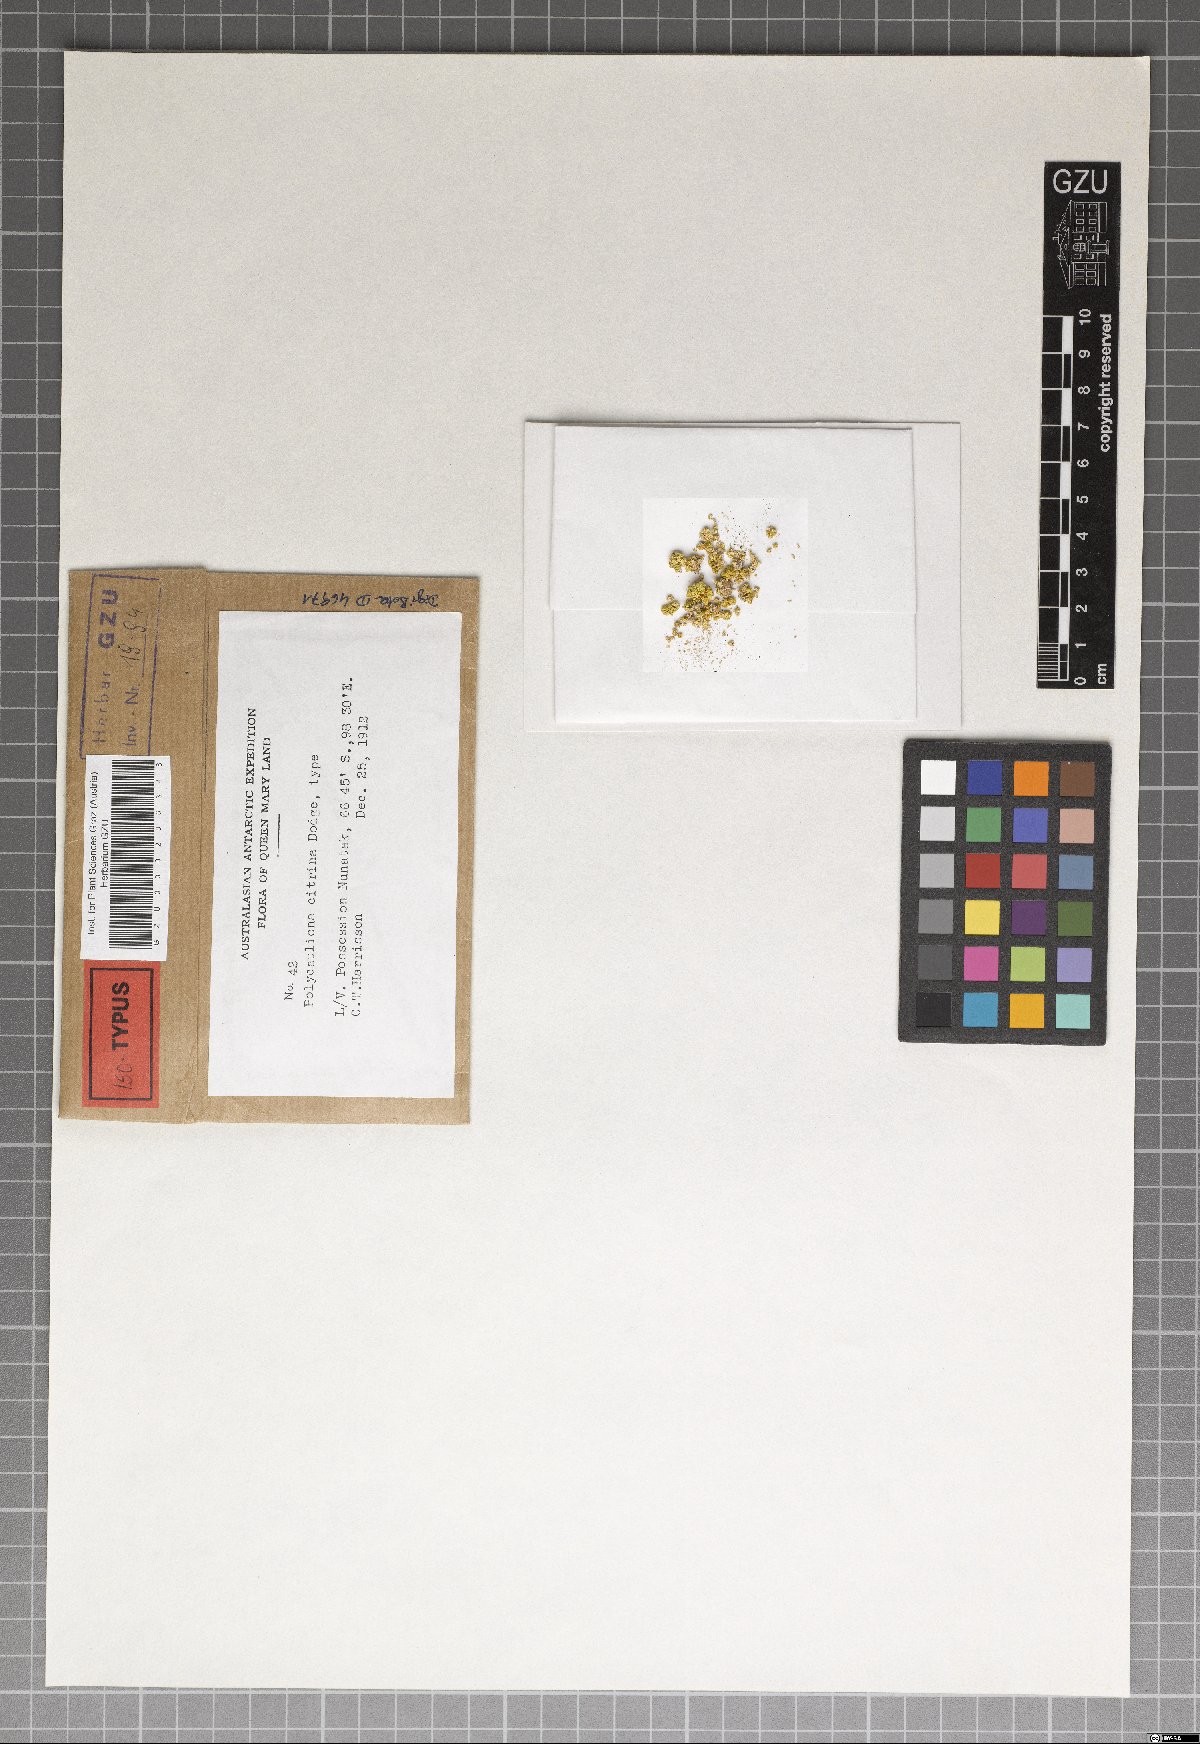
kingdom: Fungi
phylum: Ascomycota
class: Lecanoromycetes
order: Teloschistales
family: Teloschistaceae
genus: Polycauliona
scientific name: Polycauliona citrina
